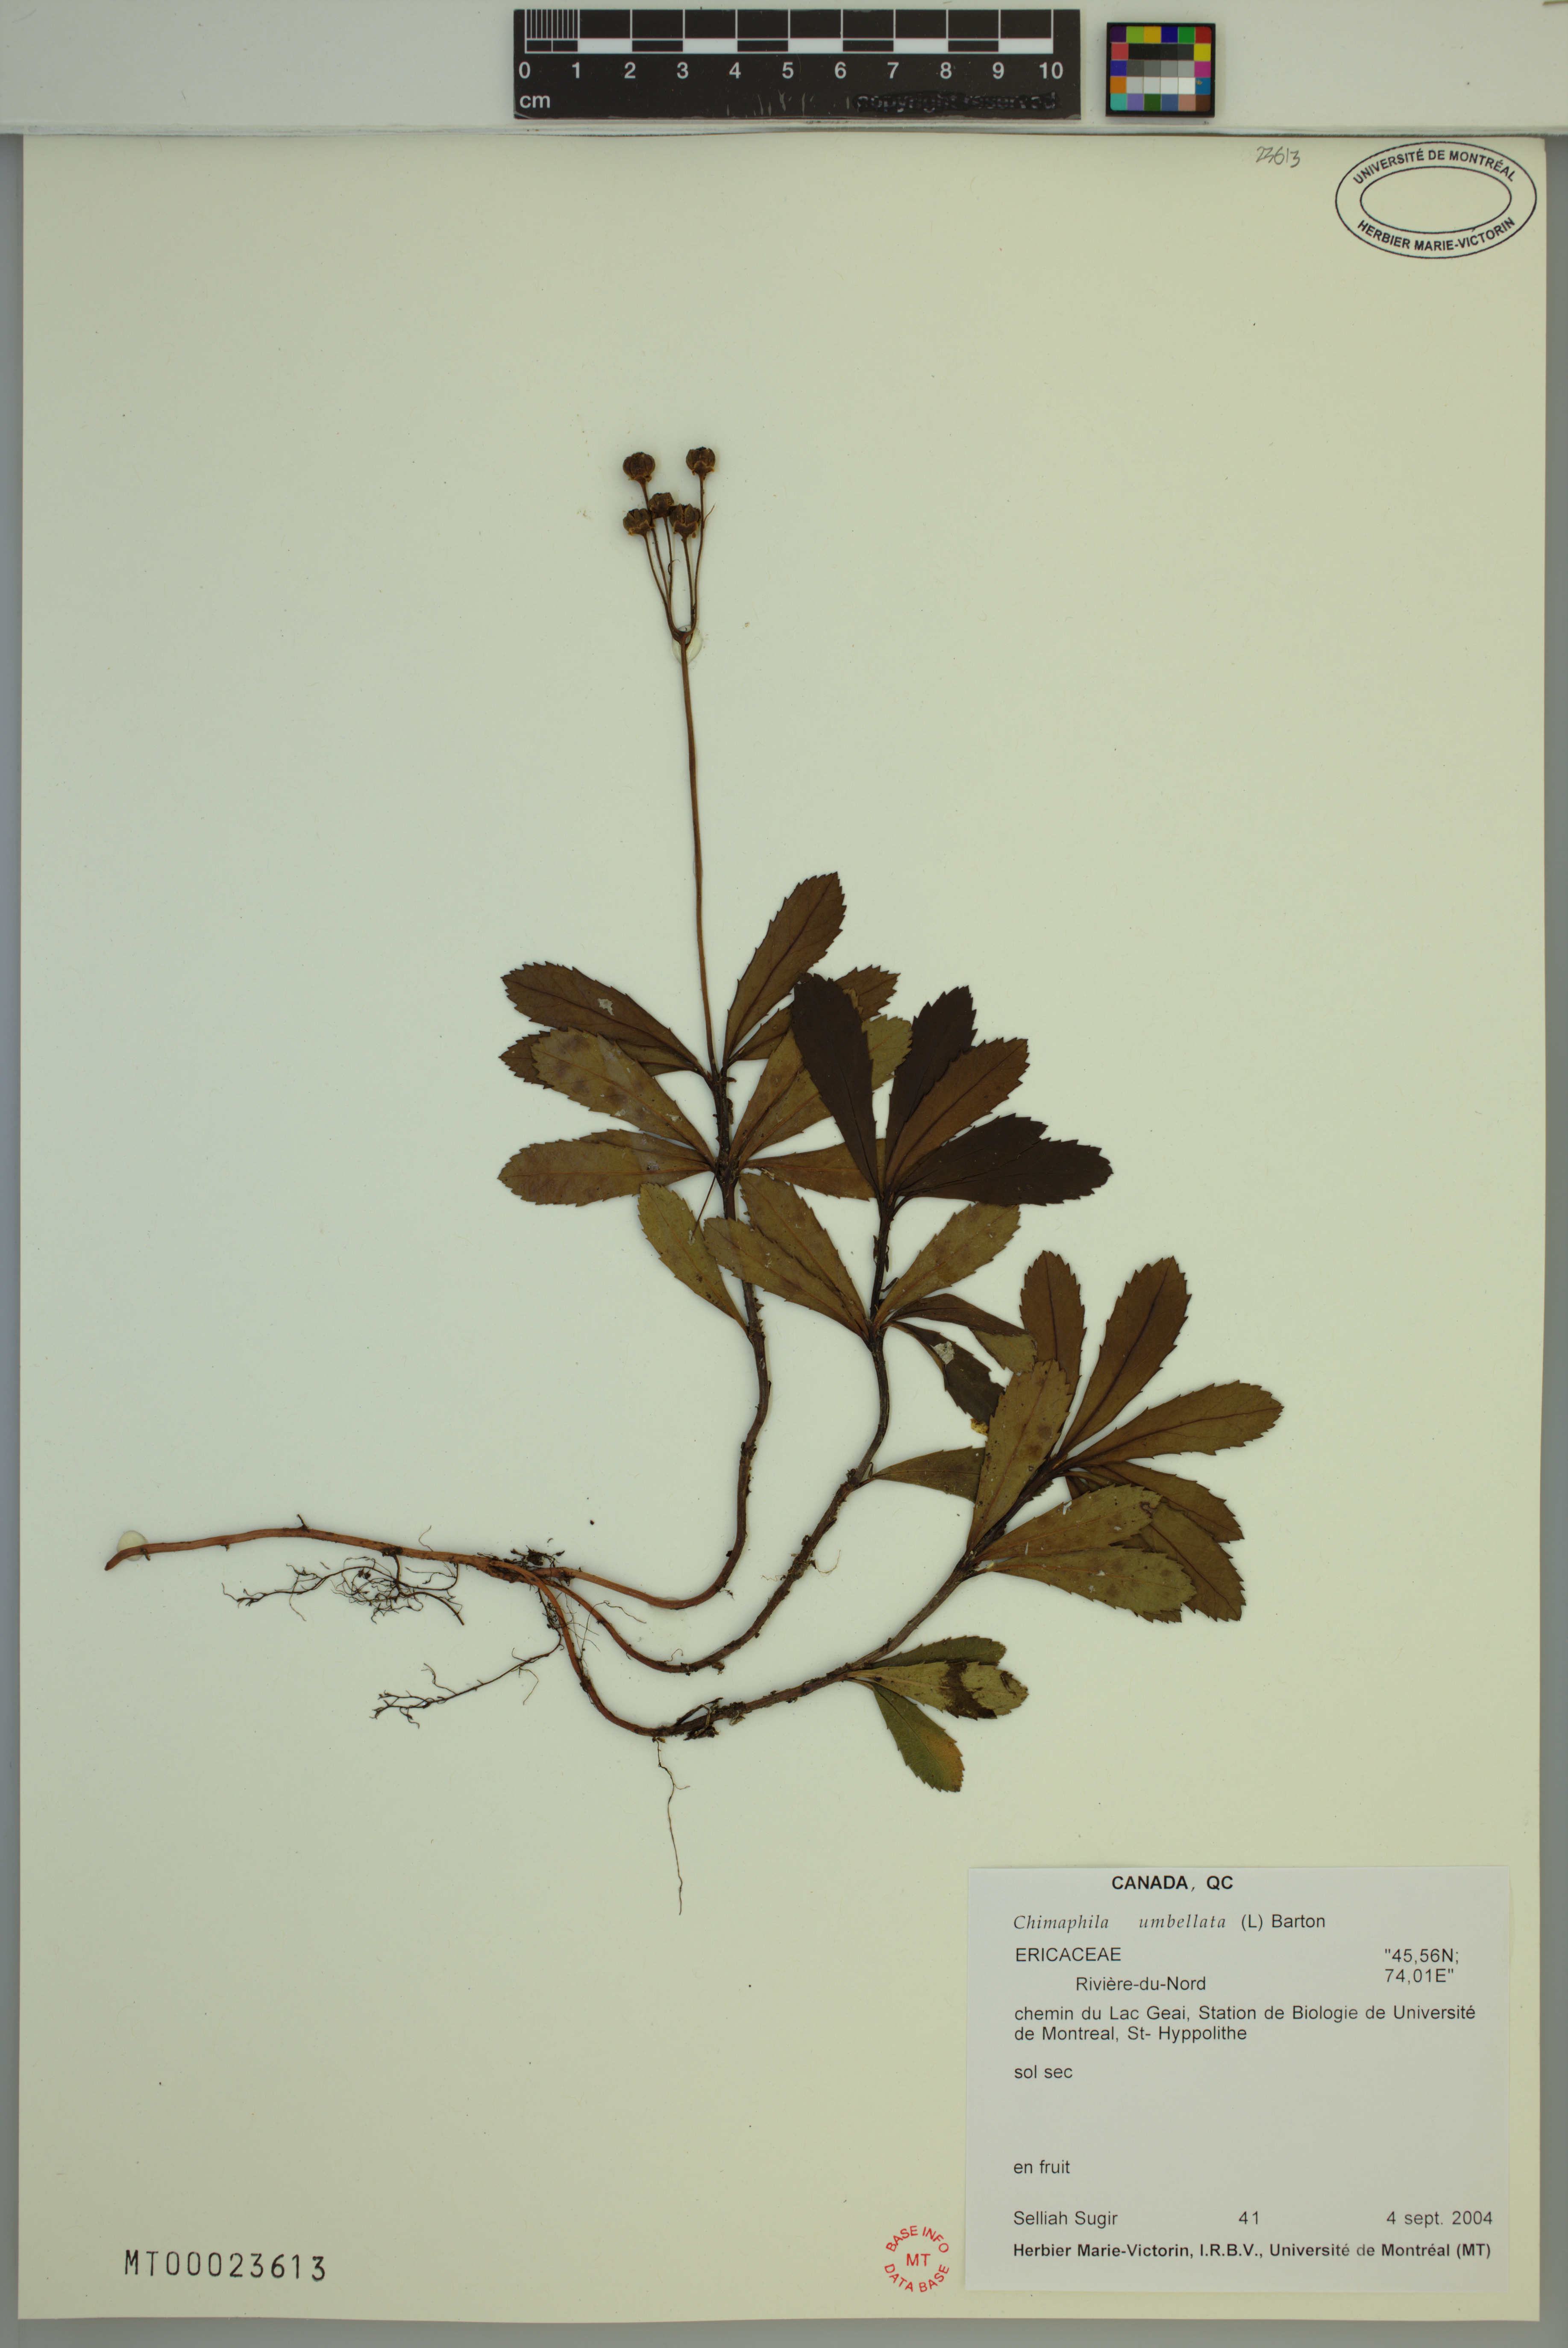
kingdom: Plantae
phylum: Tracheophyta
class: Magnoliopsida
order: Ericales
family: Ericaceae
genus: Chimaphila
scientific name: Chimaphila umbellata
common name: Pipsissewa
